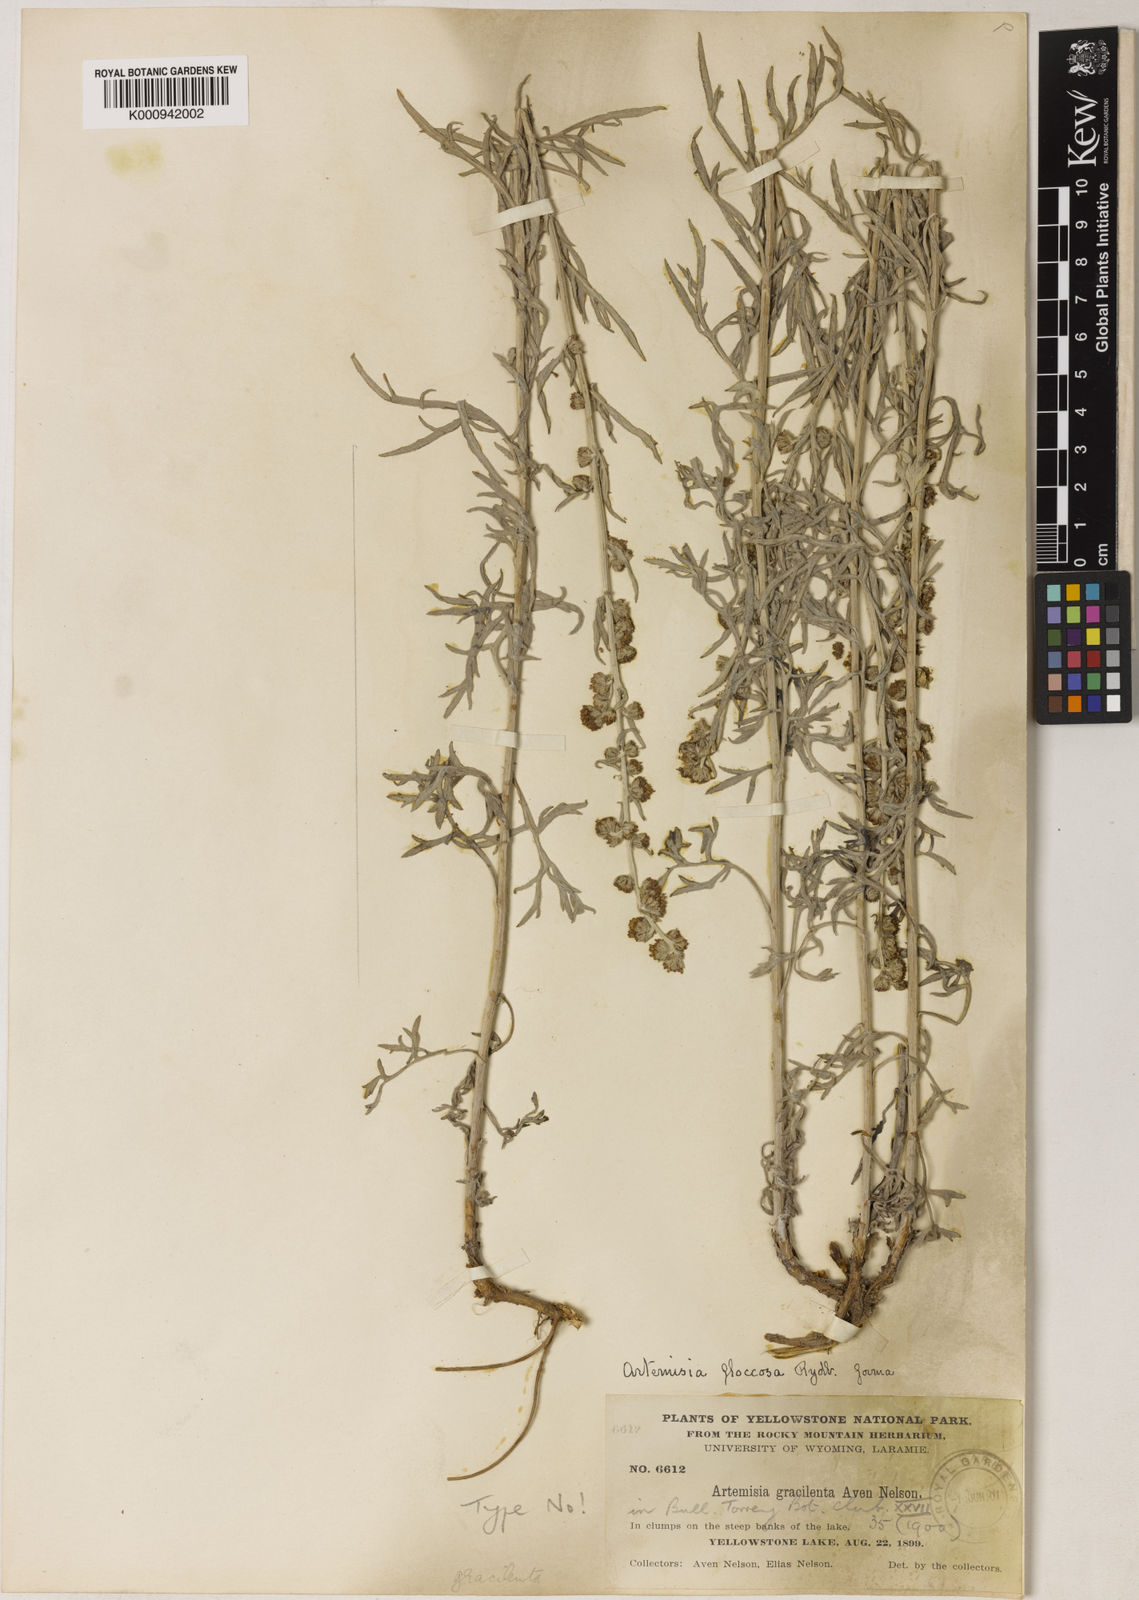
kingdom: Plantae
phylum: Tracheophyta
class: Magnoliopsida
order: Asterales
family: Asteraceae
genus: Artemisia
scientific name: Artemisia ludoviciana
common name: Western mugwort
